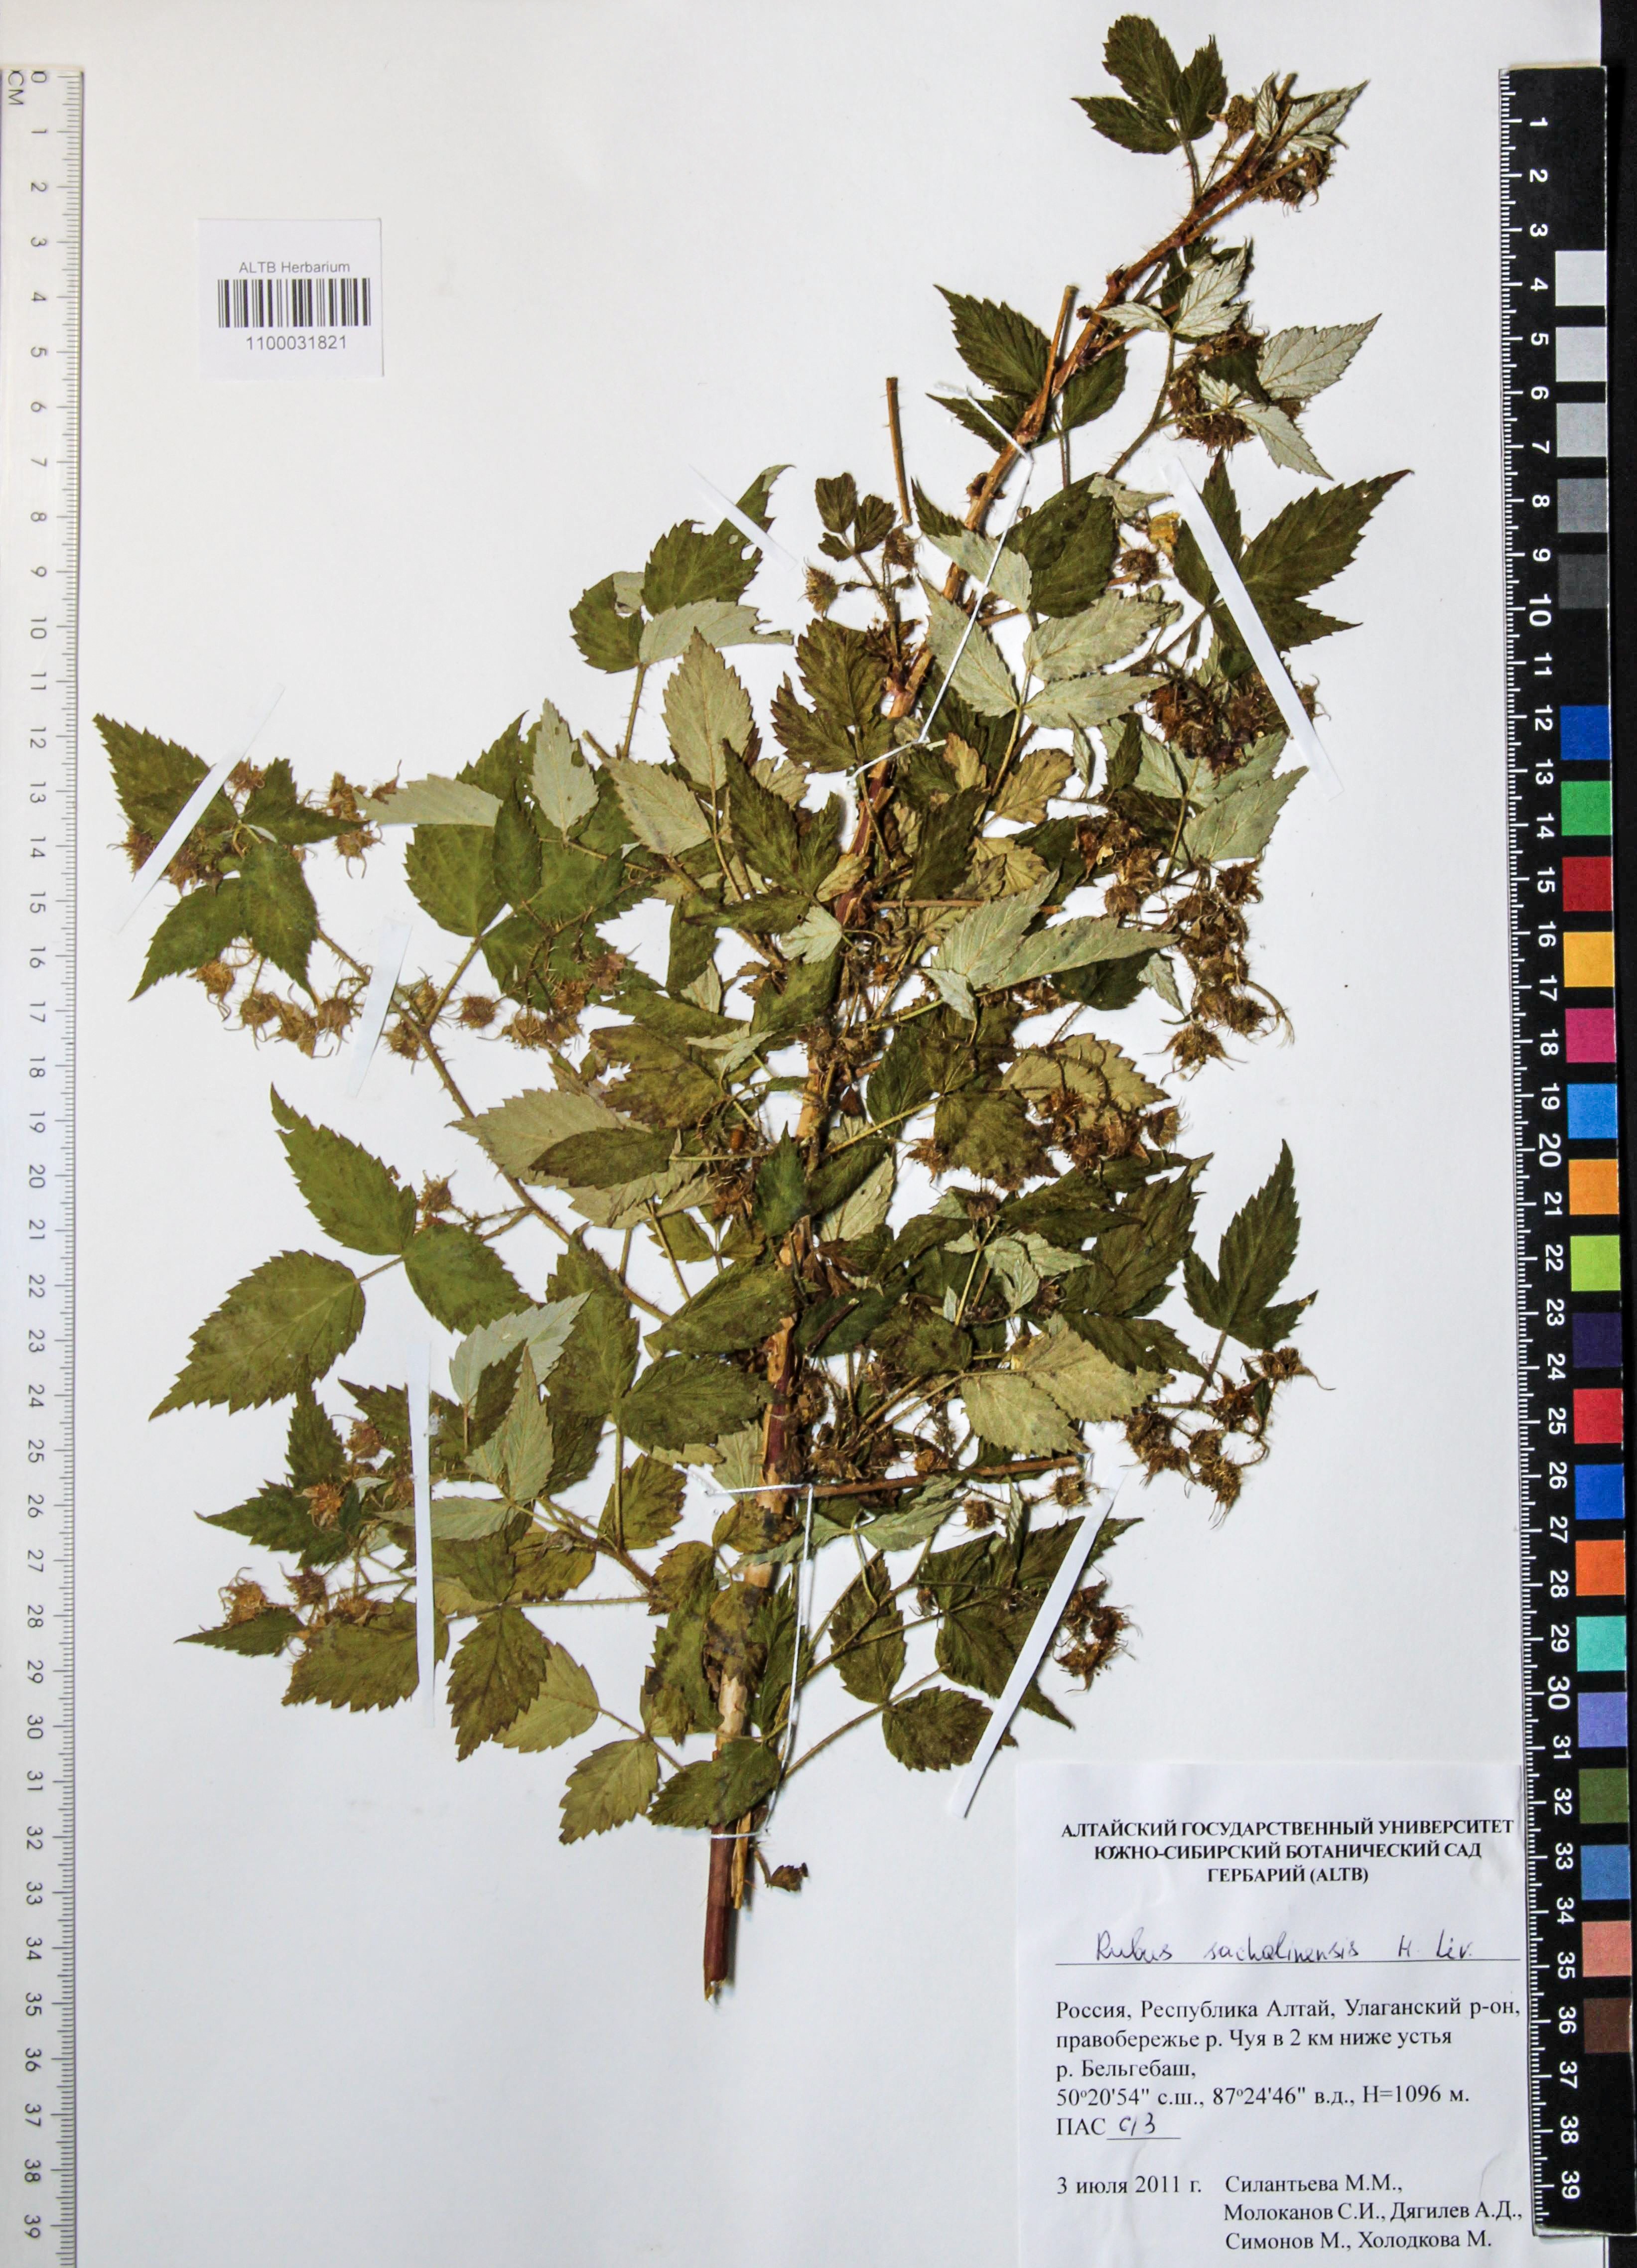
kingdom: Plantae
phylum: Tracheophyta
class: Magnoliopsida
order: Rosales
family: Rosaceae
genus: Rubus
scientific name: Rubus sachalinensis
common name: Red raspberry
